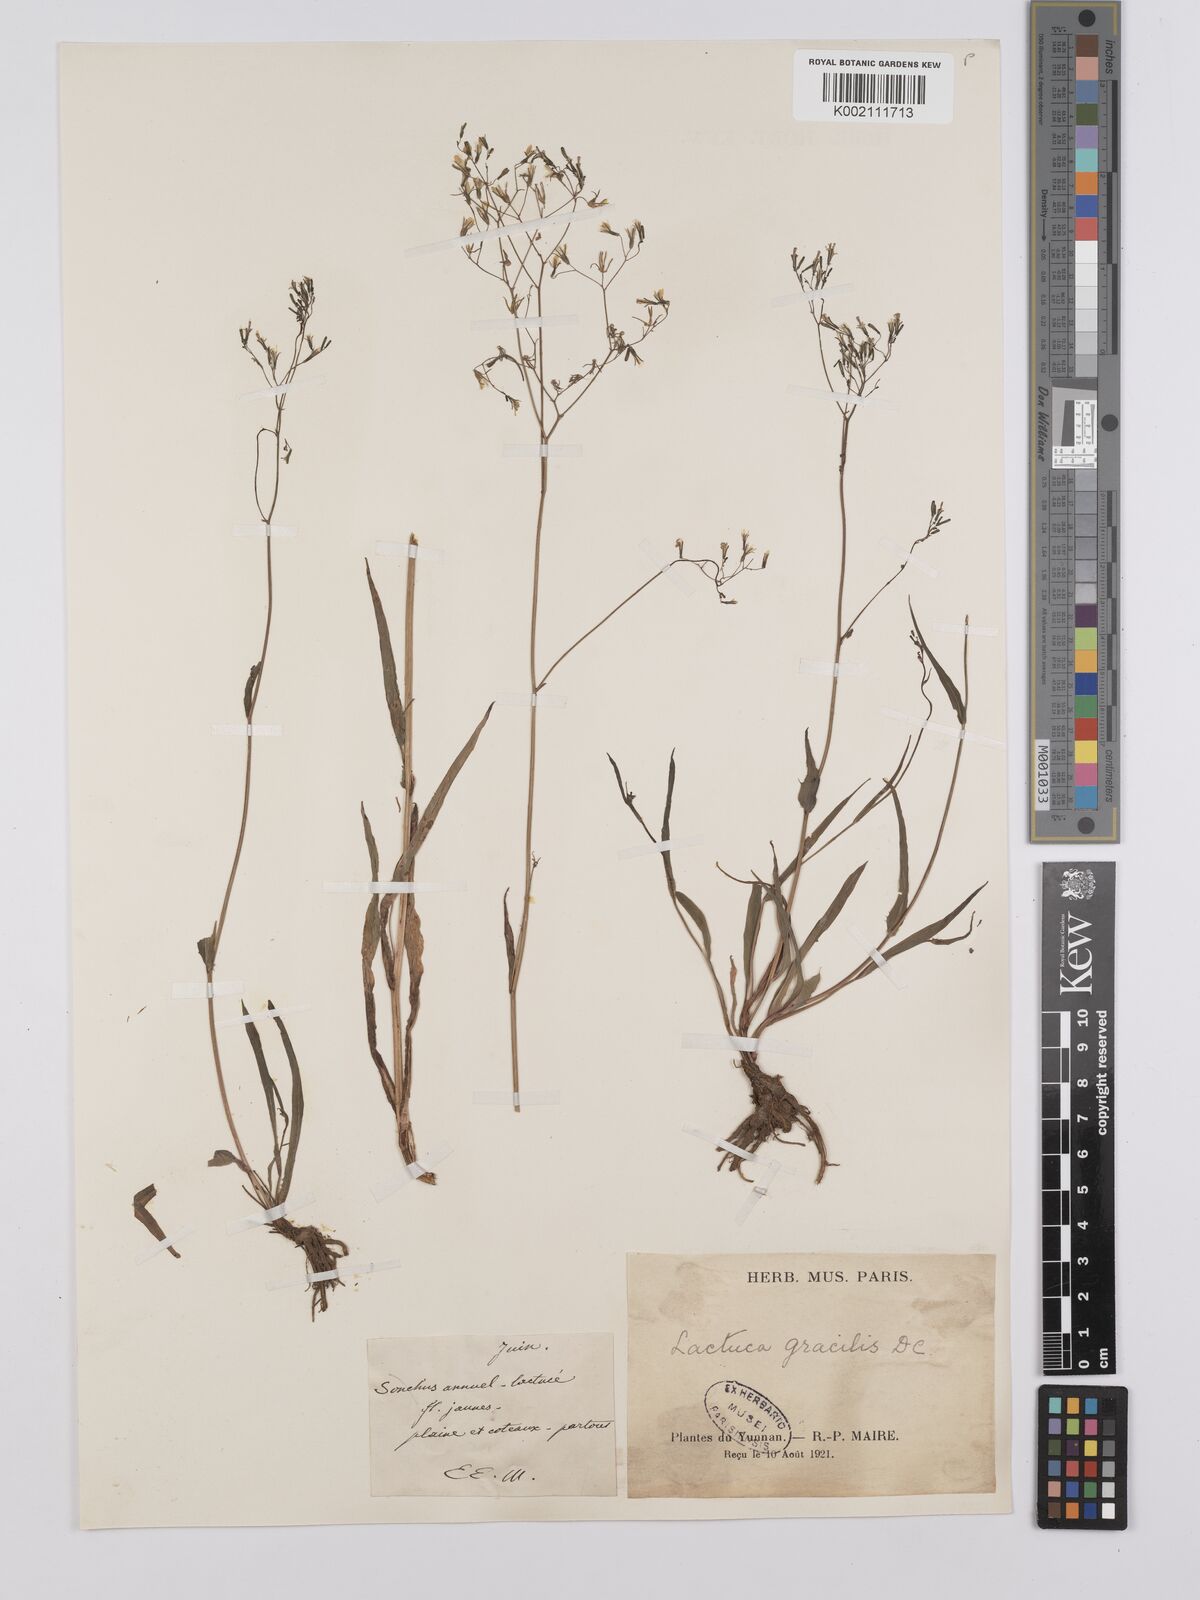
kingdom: Plantae
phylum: Tracheophyta
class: Magnoliopsida
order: Asterales
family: Asteraceae
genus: Ixeridium
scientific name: Ixeridium gracile
